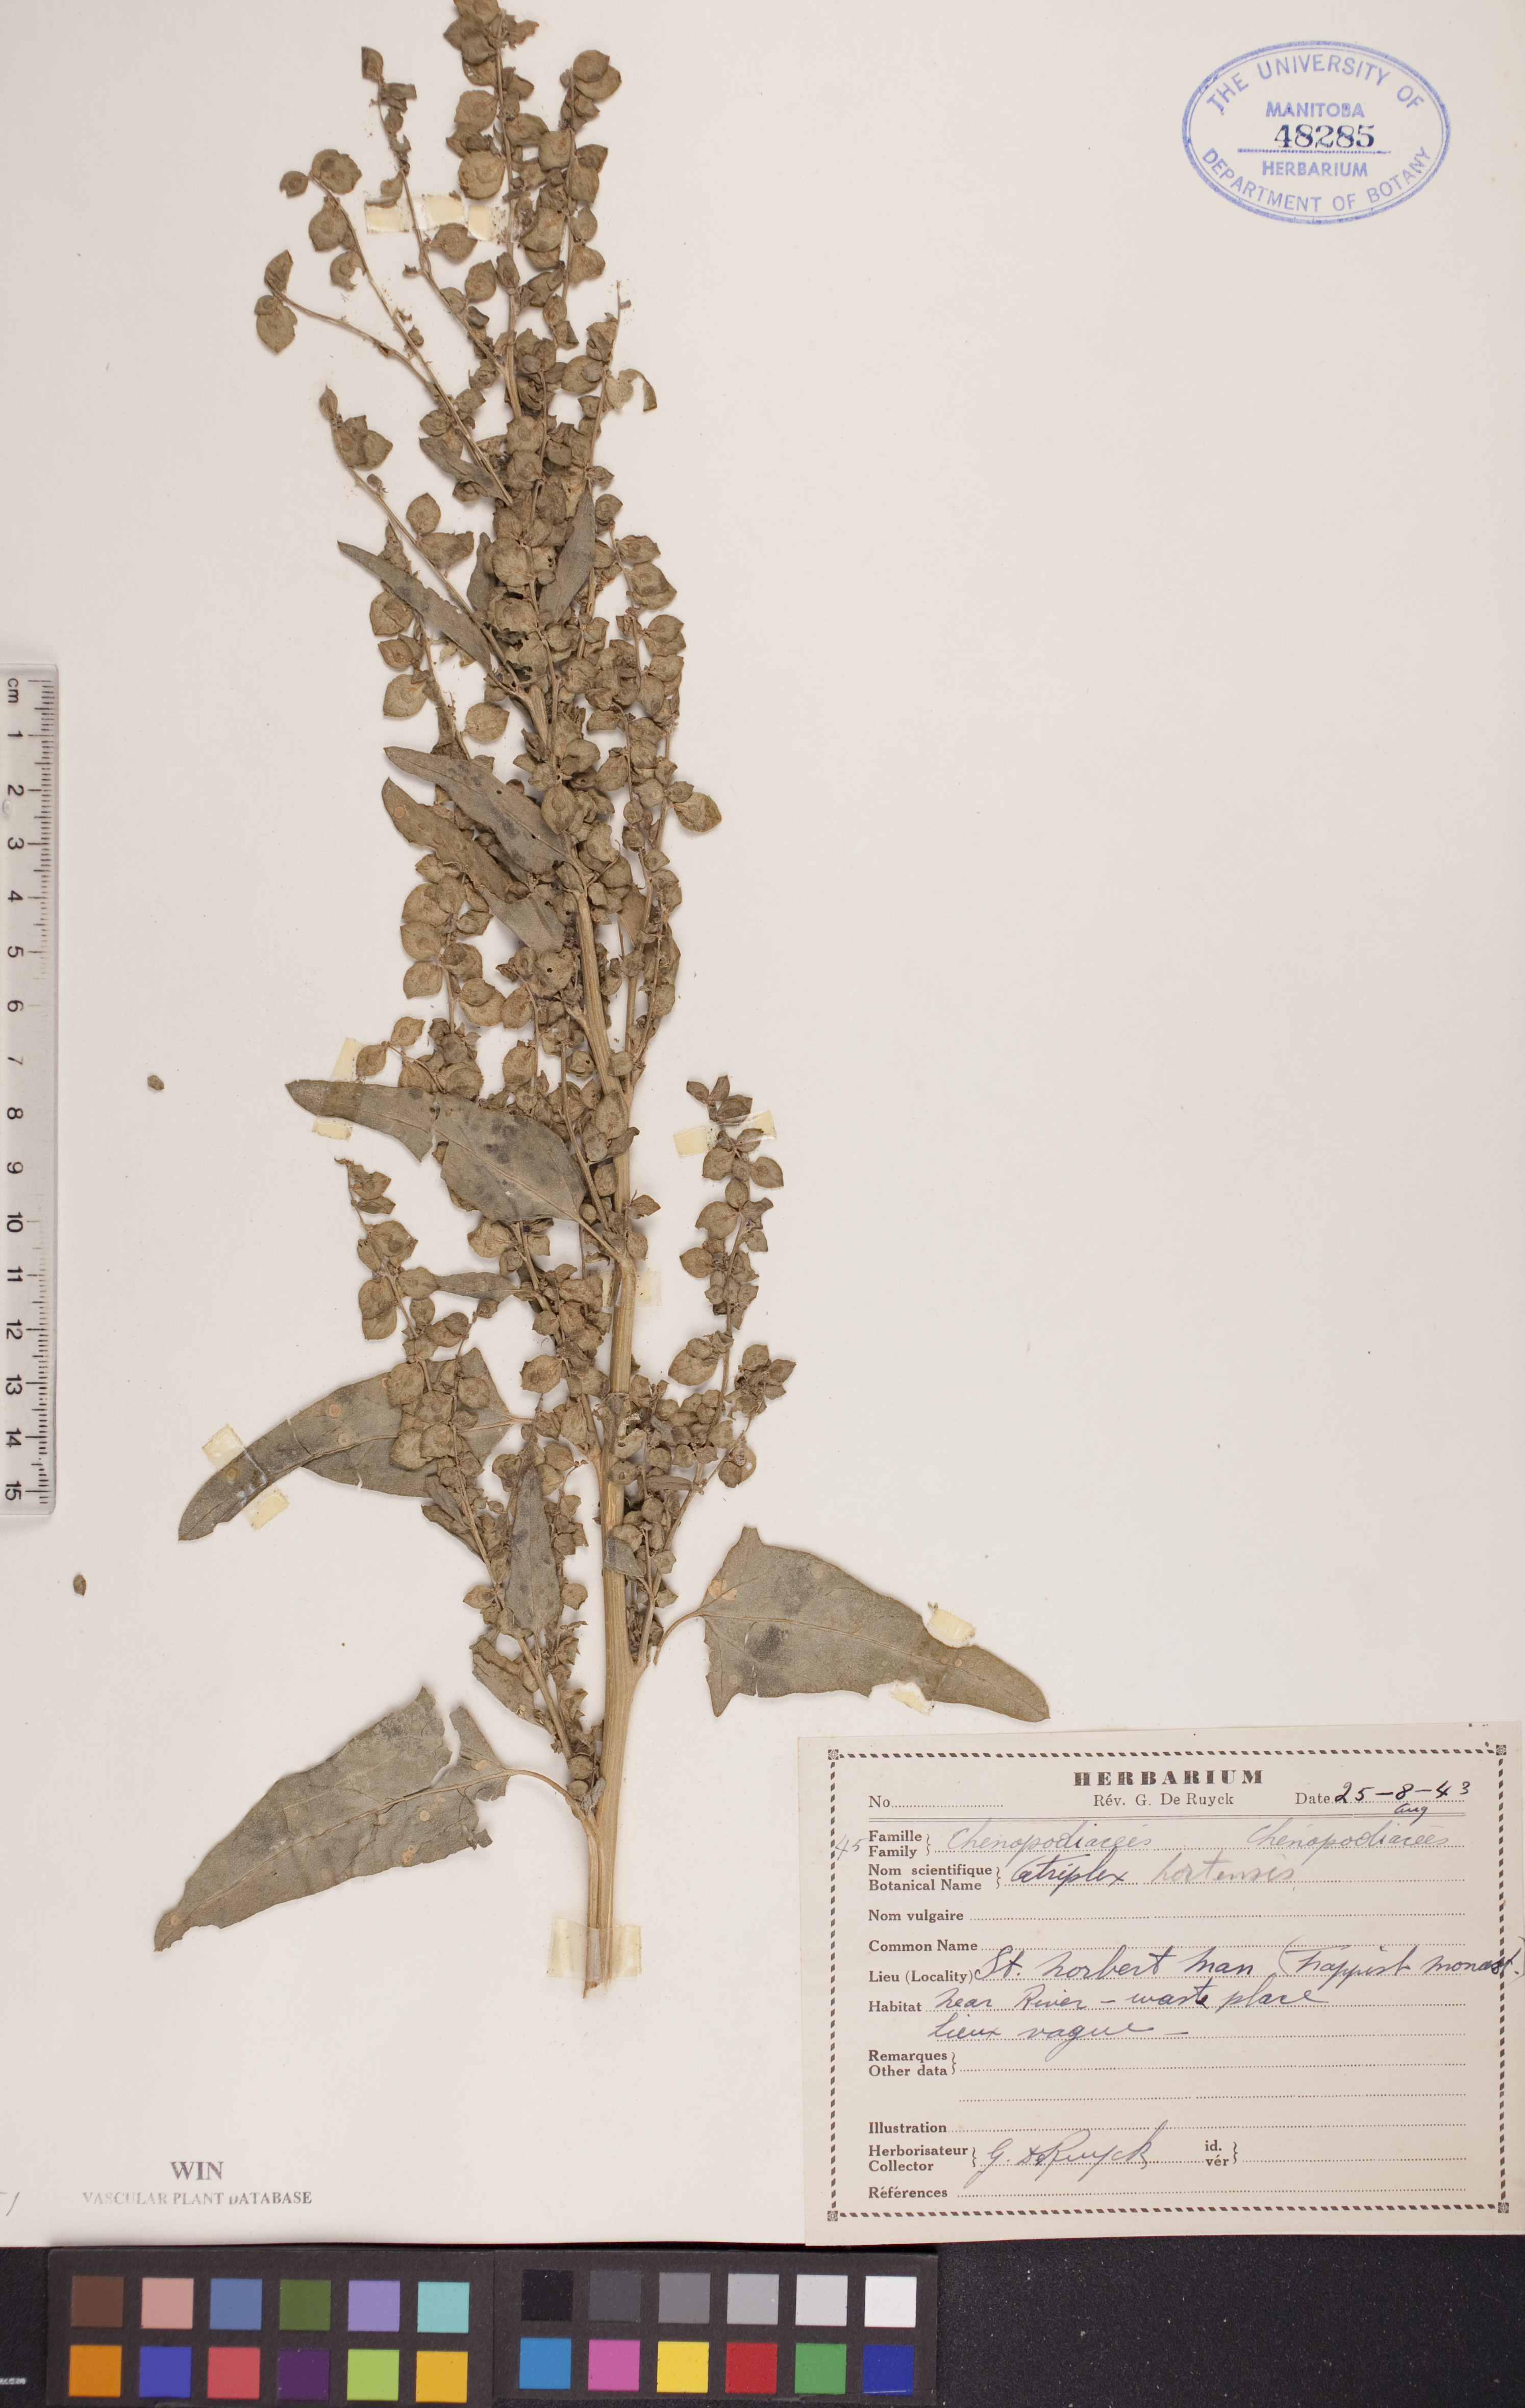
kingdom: Plantae
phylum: Tracheophyta
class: Magnoliopsida
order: Caryophyllales
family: Amaranthaceae
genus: Atriplex
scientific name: Atriplex hortensis
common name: Garden orache
